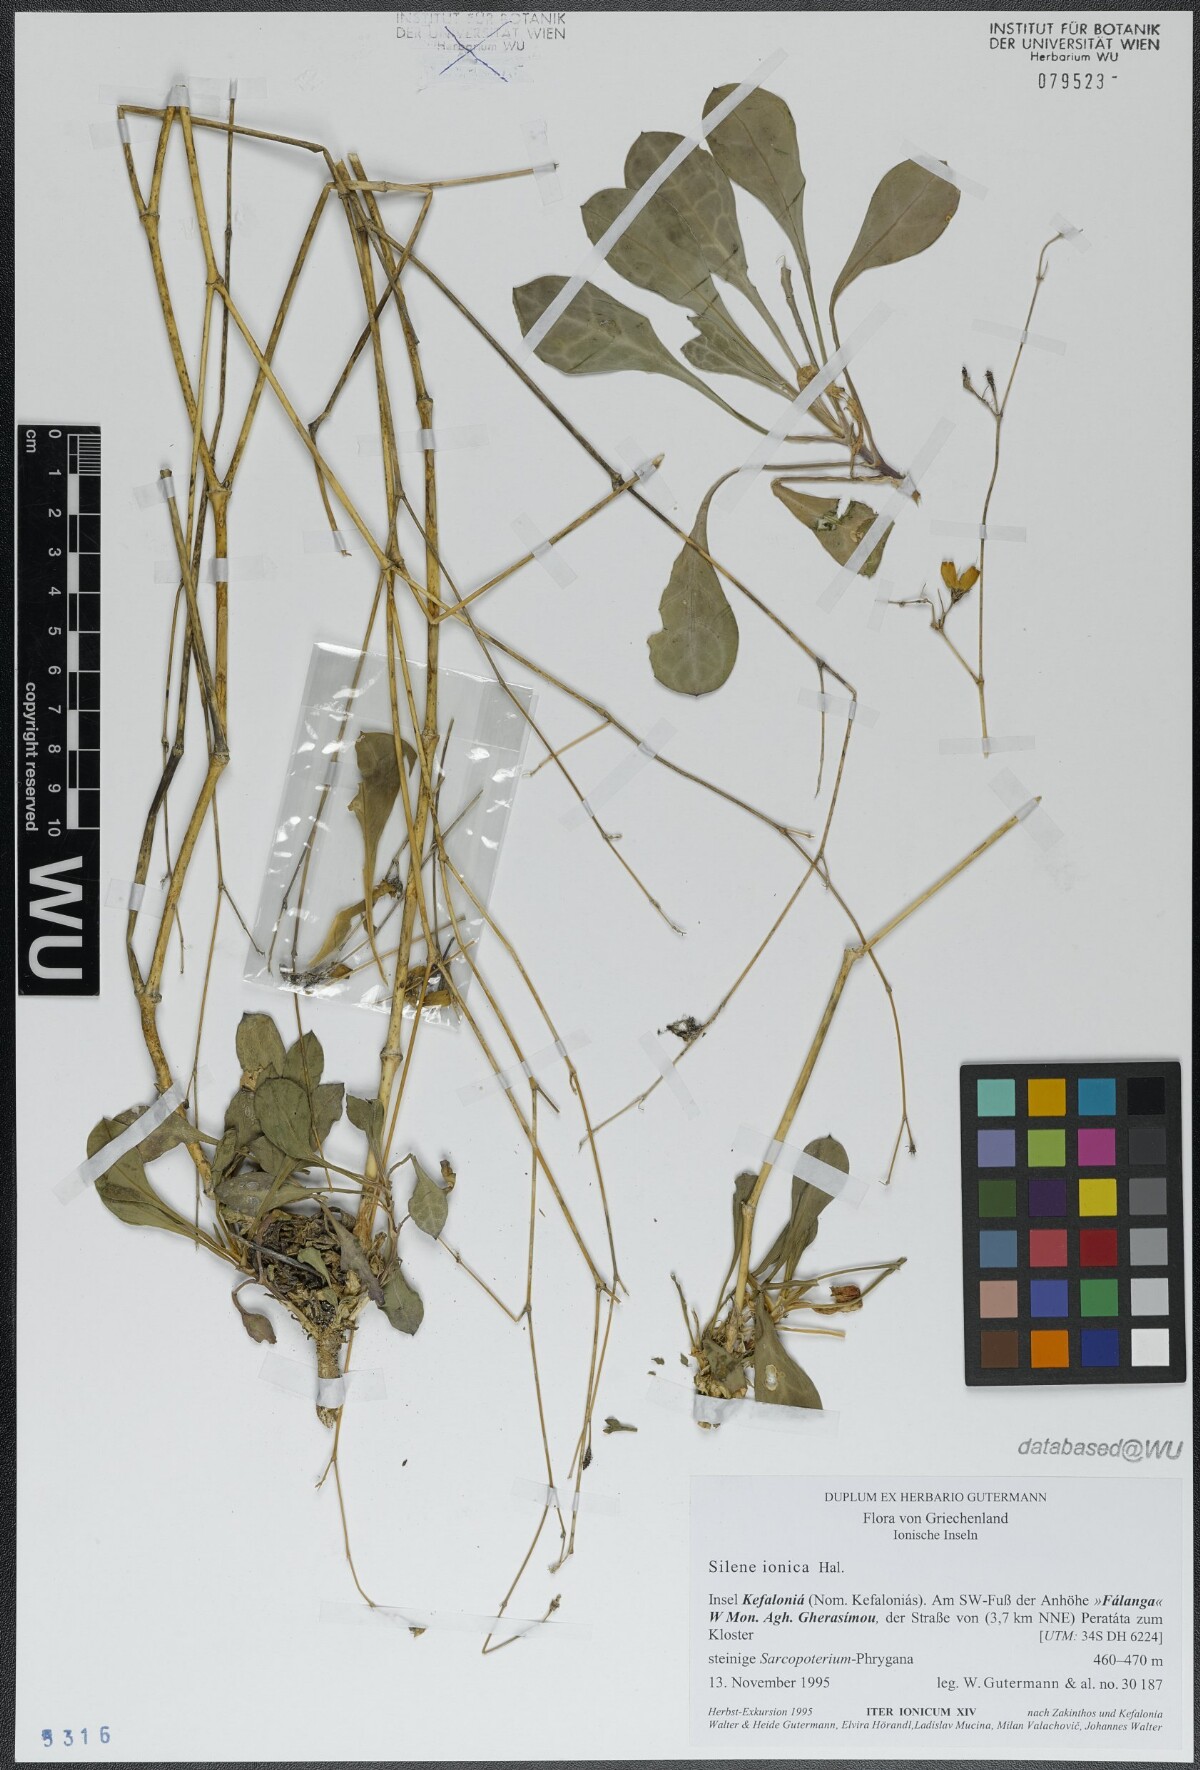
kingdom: Plantae
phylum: Tracheophyta
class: Magnoliopsida
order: Caryophyllales
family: Caryophyllaceae
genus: Silene
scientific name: Silene ionica
